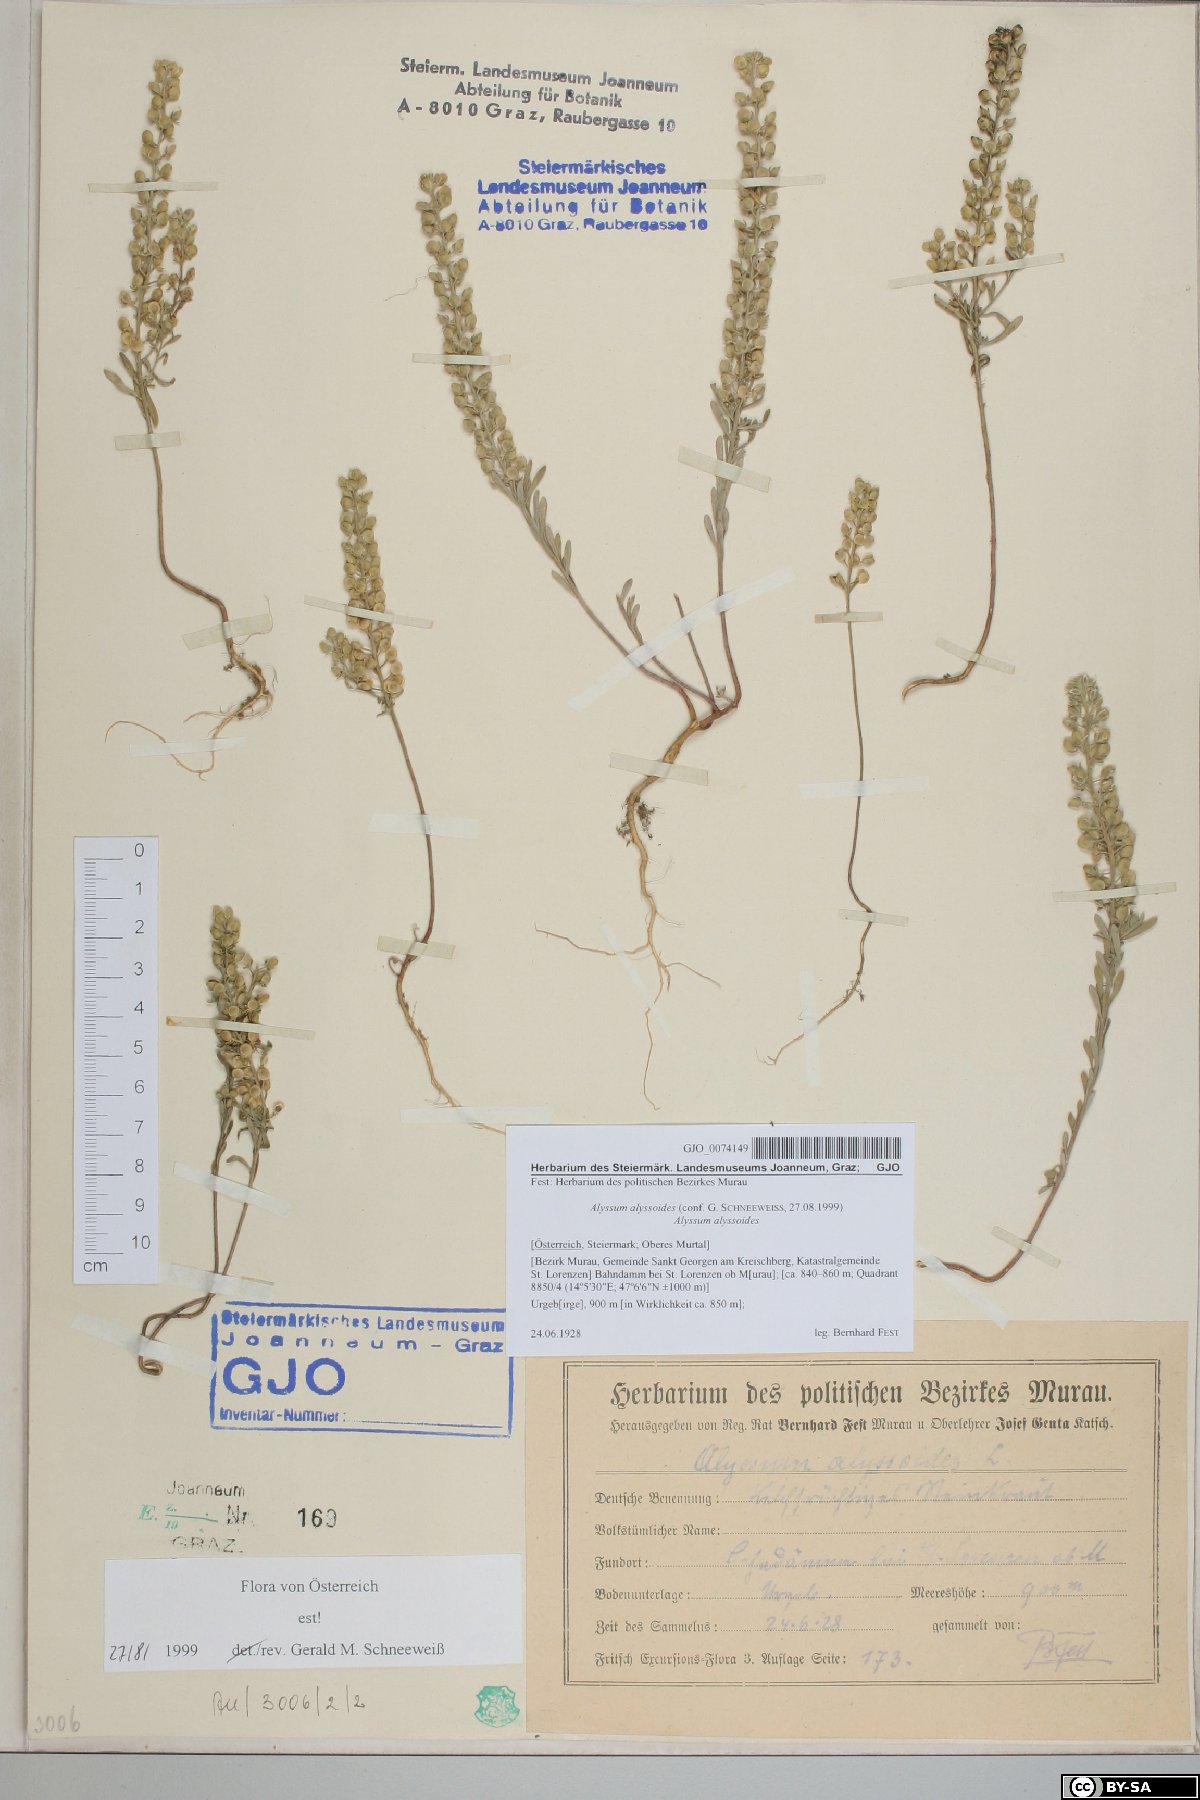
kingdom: Plantae
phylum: Tracheophyta
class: Magnoliopsida
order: Brassicales
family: Brassicaceae
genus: Alyssum
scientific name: Alyssum alyssoides
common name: Small alison
